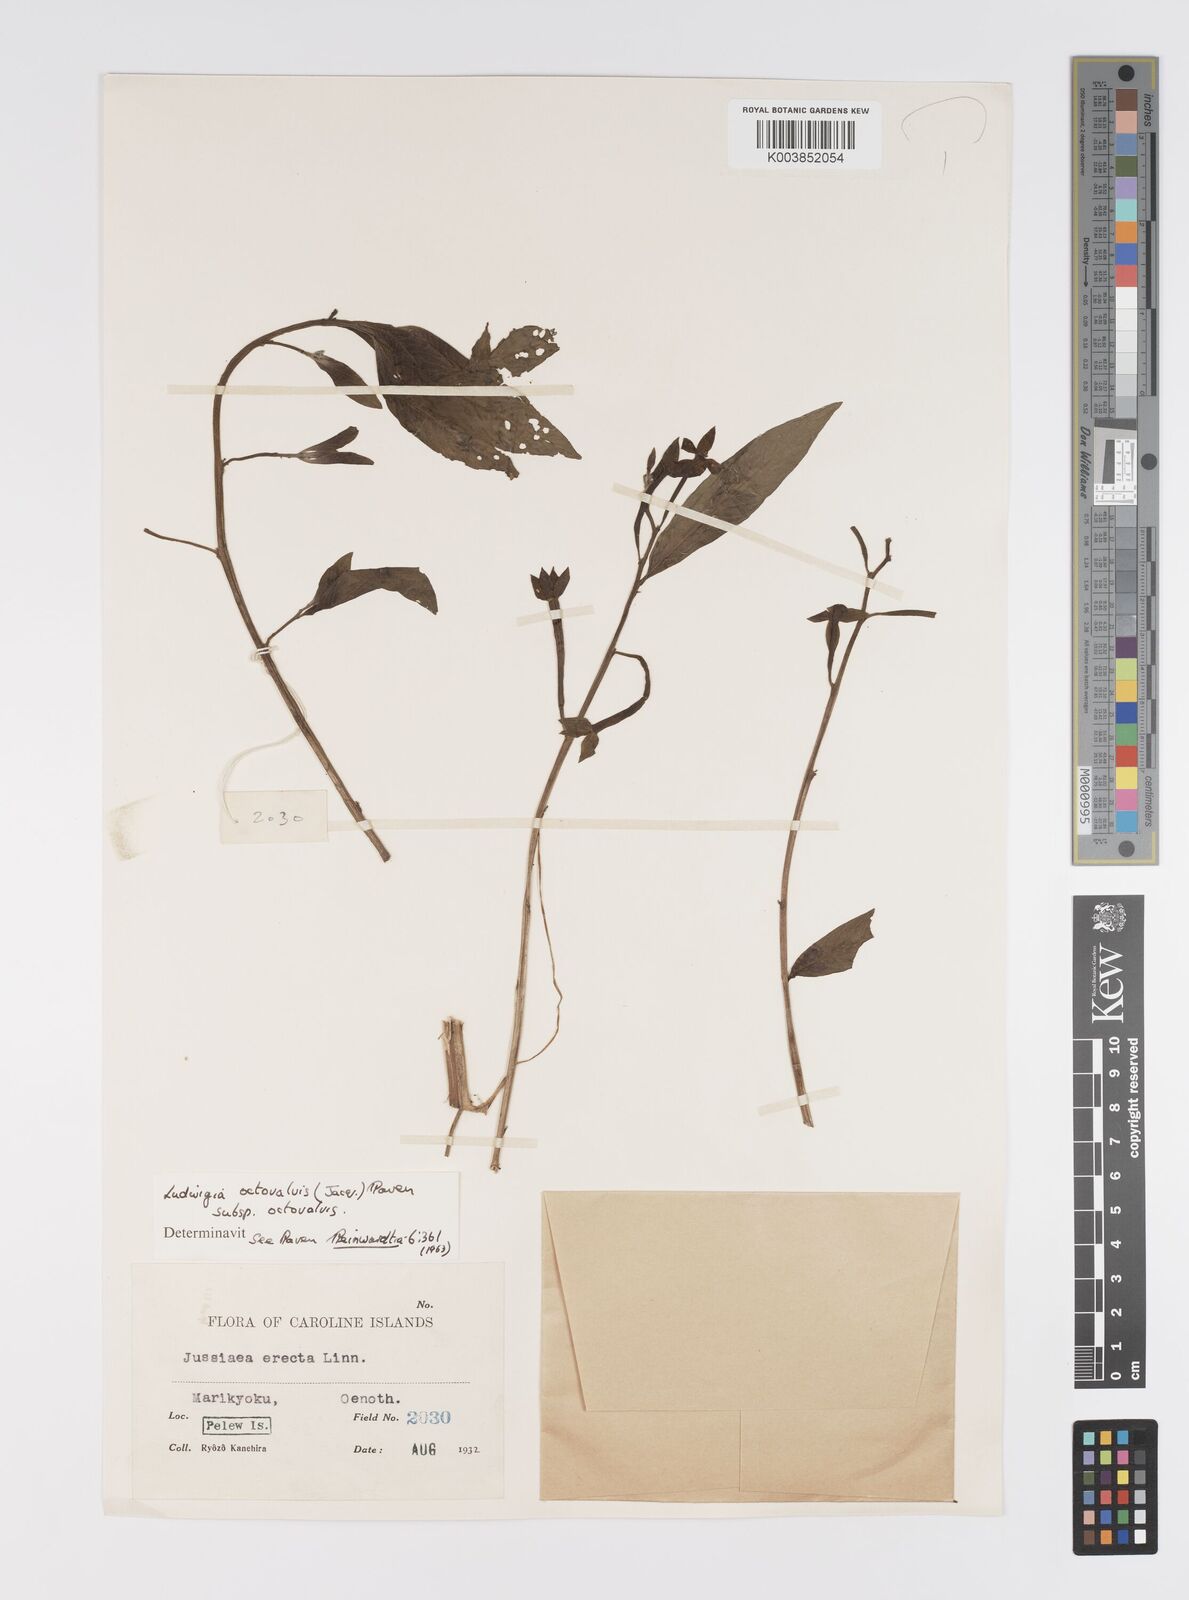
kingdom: Plantae
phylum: Tracheophyta
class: Magnoliopsida
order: Myrtales
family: Onagraceae
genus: Ludwigia
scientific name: Ludwigia octovalvis
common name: Water-primrose
